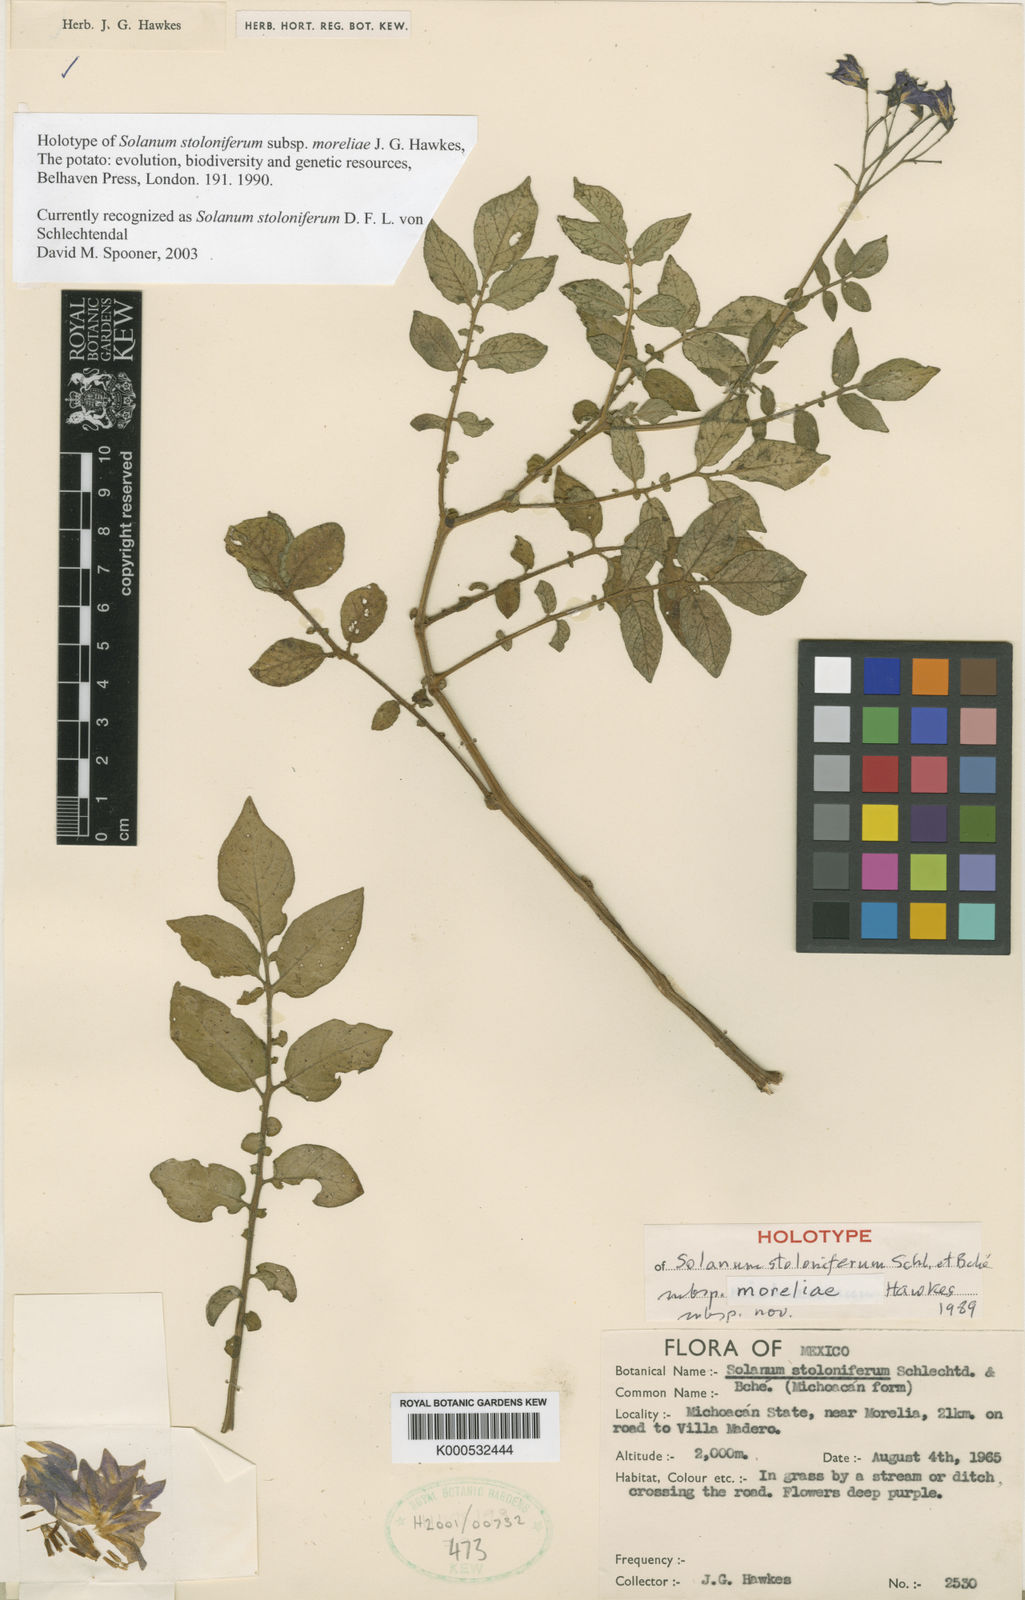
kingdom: Plantae
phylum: Tracheophyta
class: Magnoliopsida
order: Solanales
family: Solanaceae
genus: Solanum
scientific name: Solanum
